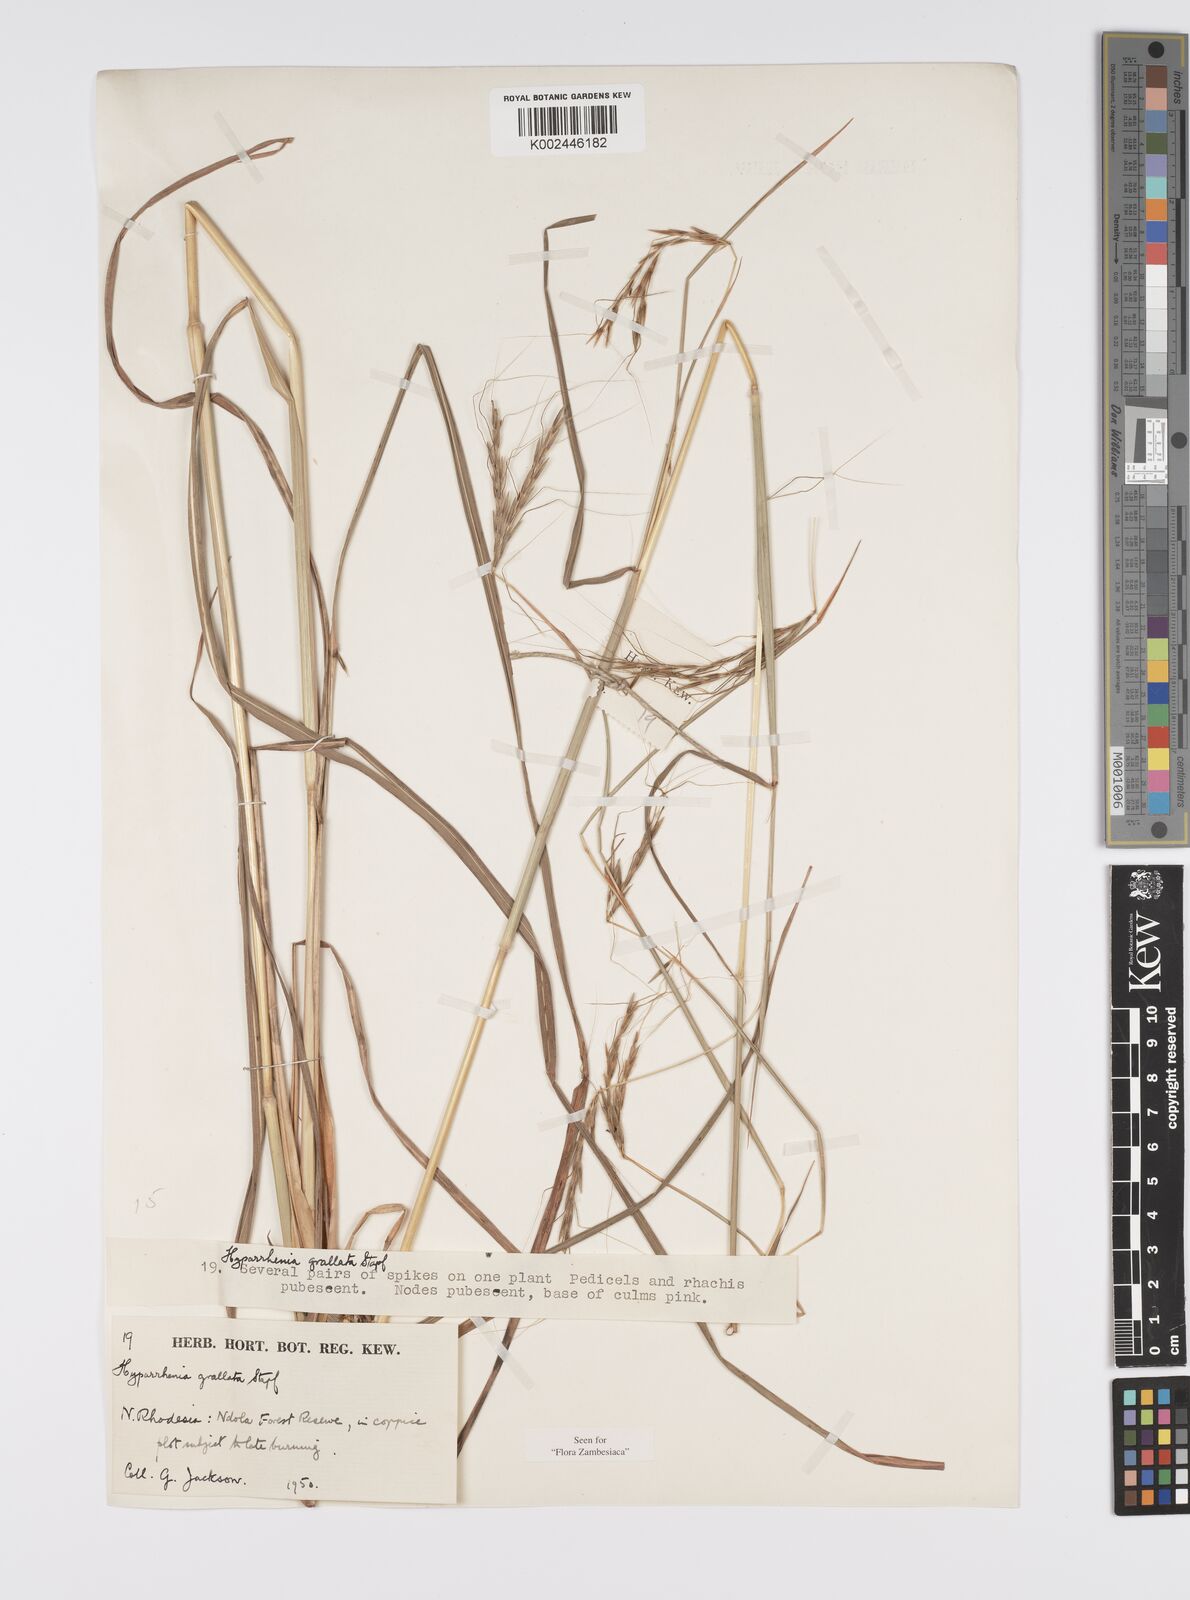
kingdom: Plantae
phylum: Tracheophyta
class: Liliopsida
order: Poales
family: Poaceae
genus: Elymandra
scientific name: Elymandra grallata
